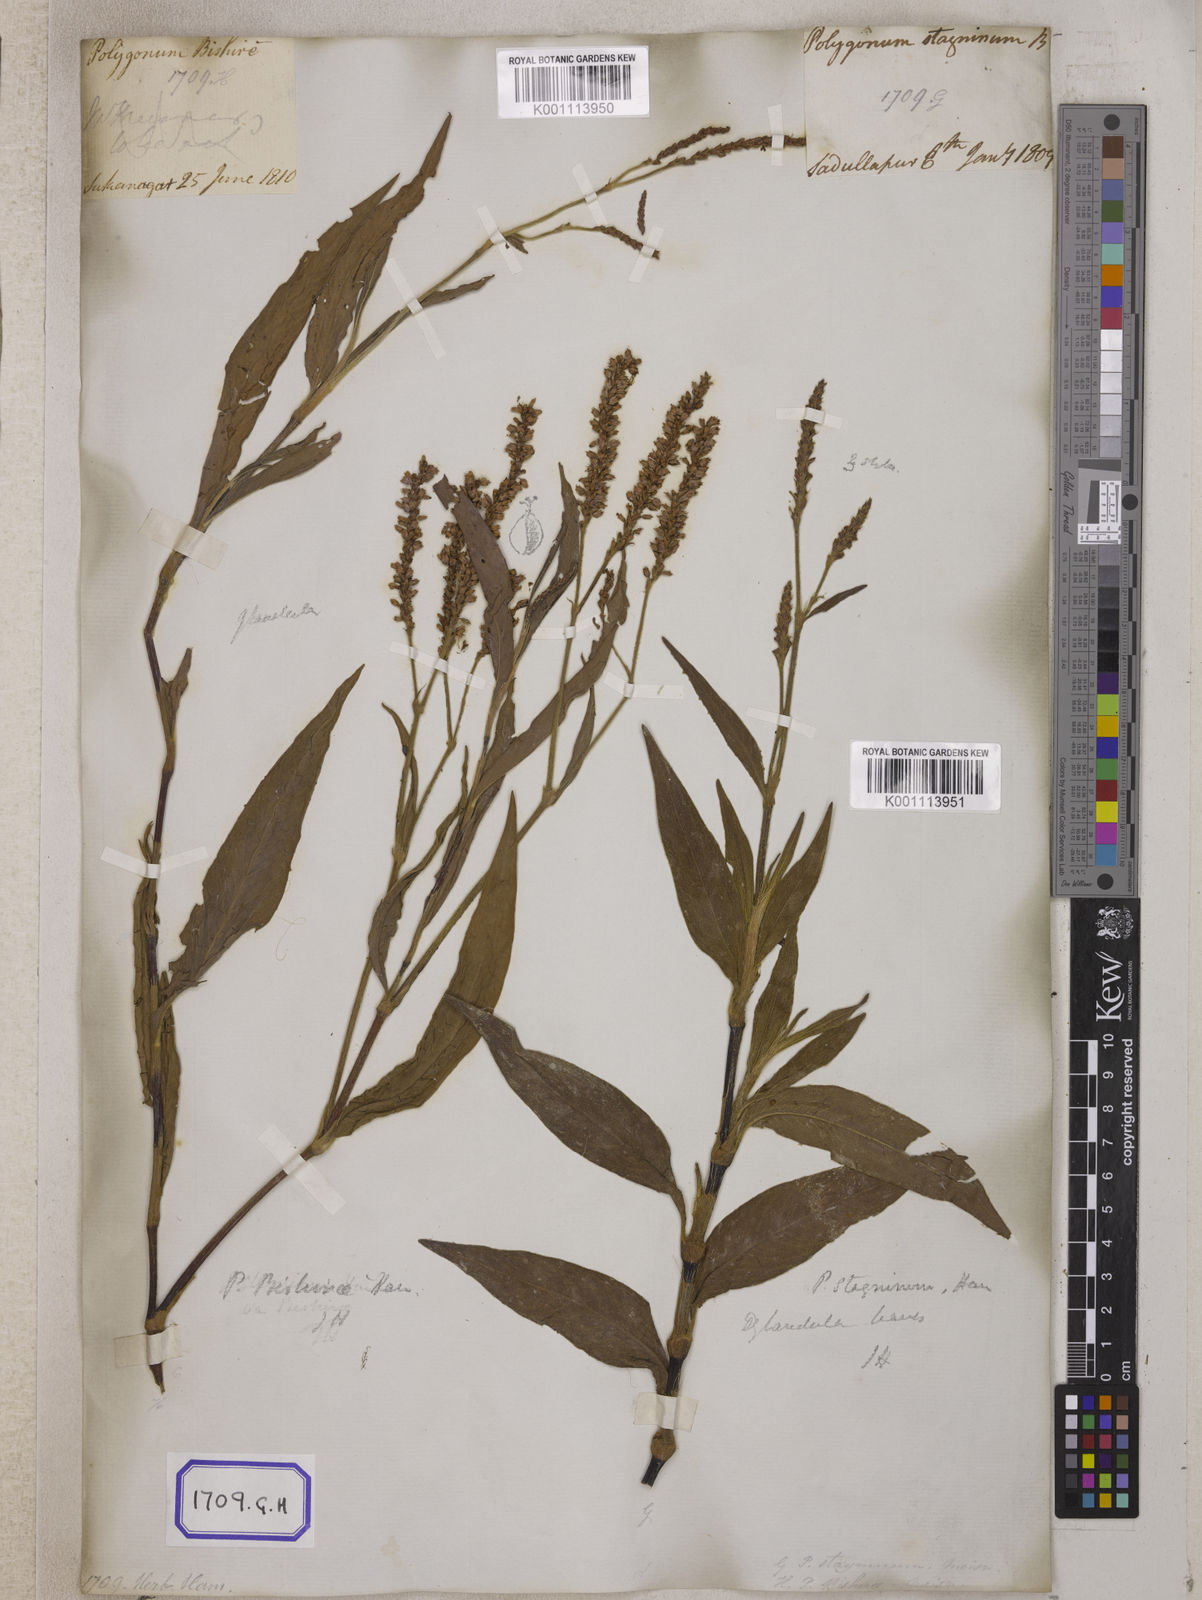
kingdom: Plantae
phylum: Tracheophyta
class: Magnoliopsida
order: Caryophyllales
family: Polygonaceae
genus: Persicaria
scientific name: Persicaria madagascariensis
